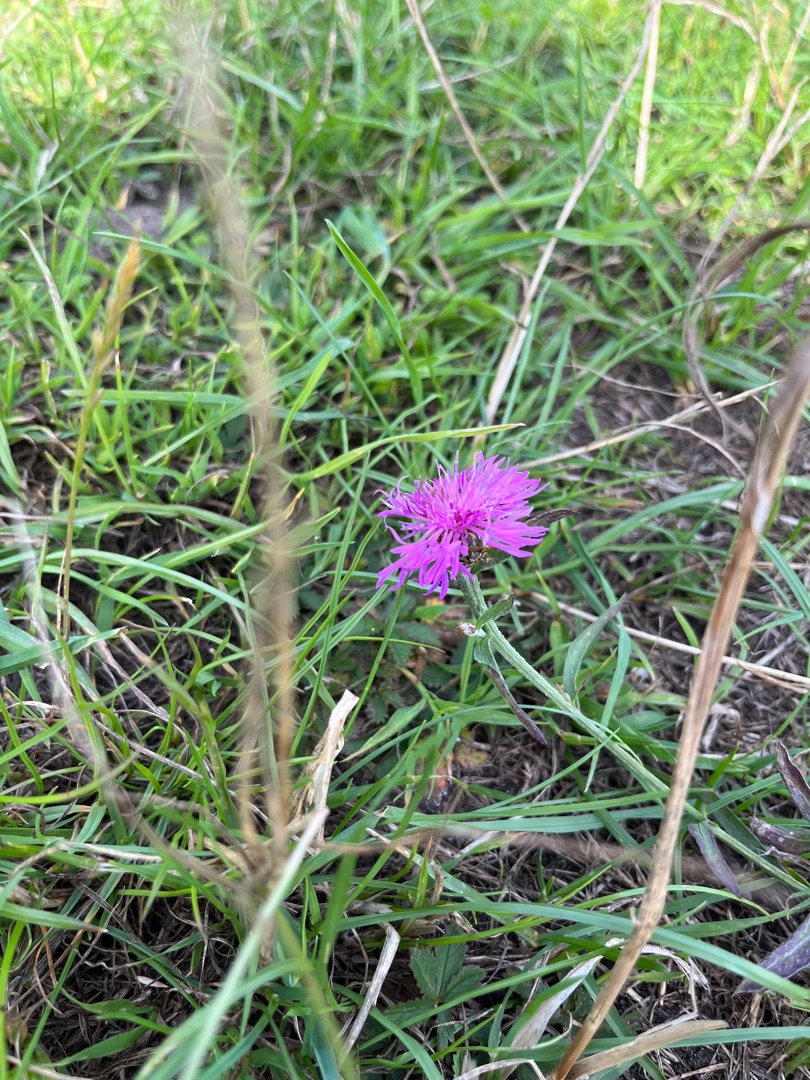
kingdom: Plantae
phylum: Tracheophyta
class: Magnoliopsida
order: Asterales
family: Asteraceae
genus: Centaurea
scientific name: Centaurea jacea
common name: Almindelig knopurt
